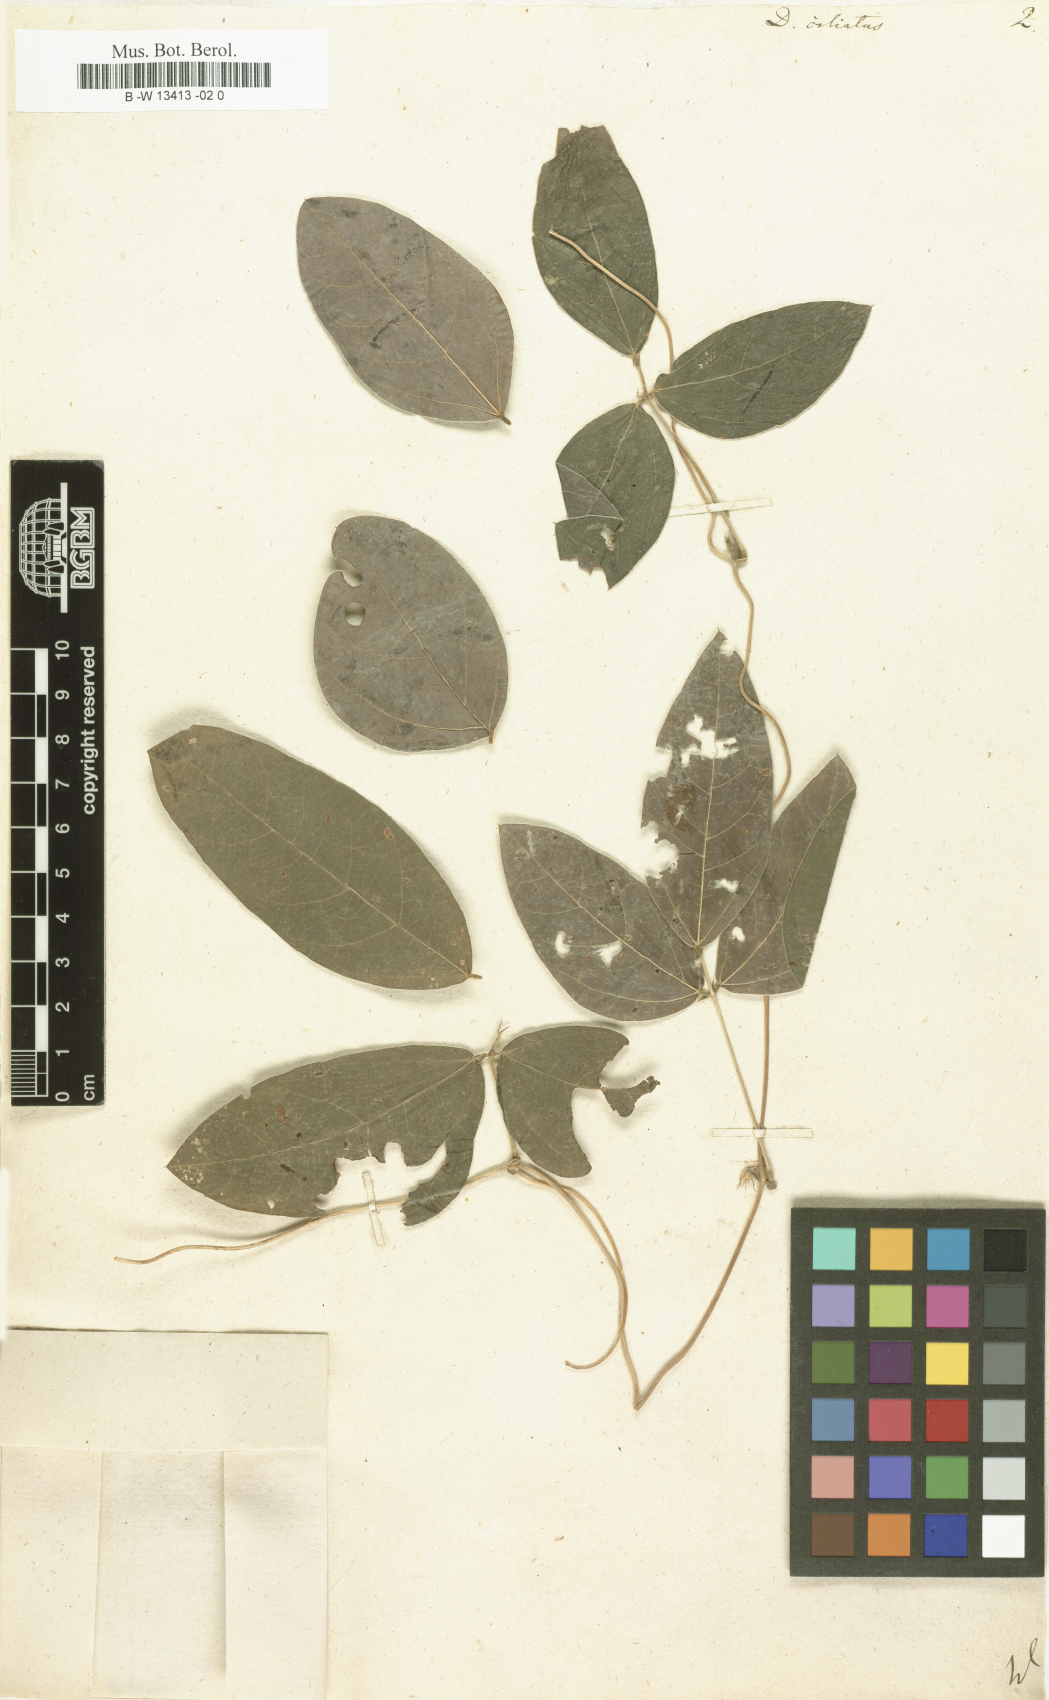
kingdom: Plantae
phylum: Tracheophyta
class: Magnoliopsida
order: Fabales
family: Fabaceae
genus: Macrotyloma
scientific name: Macrotyloma ciliatum
